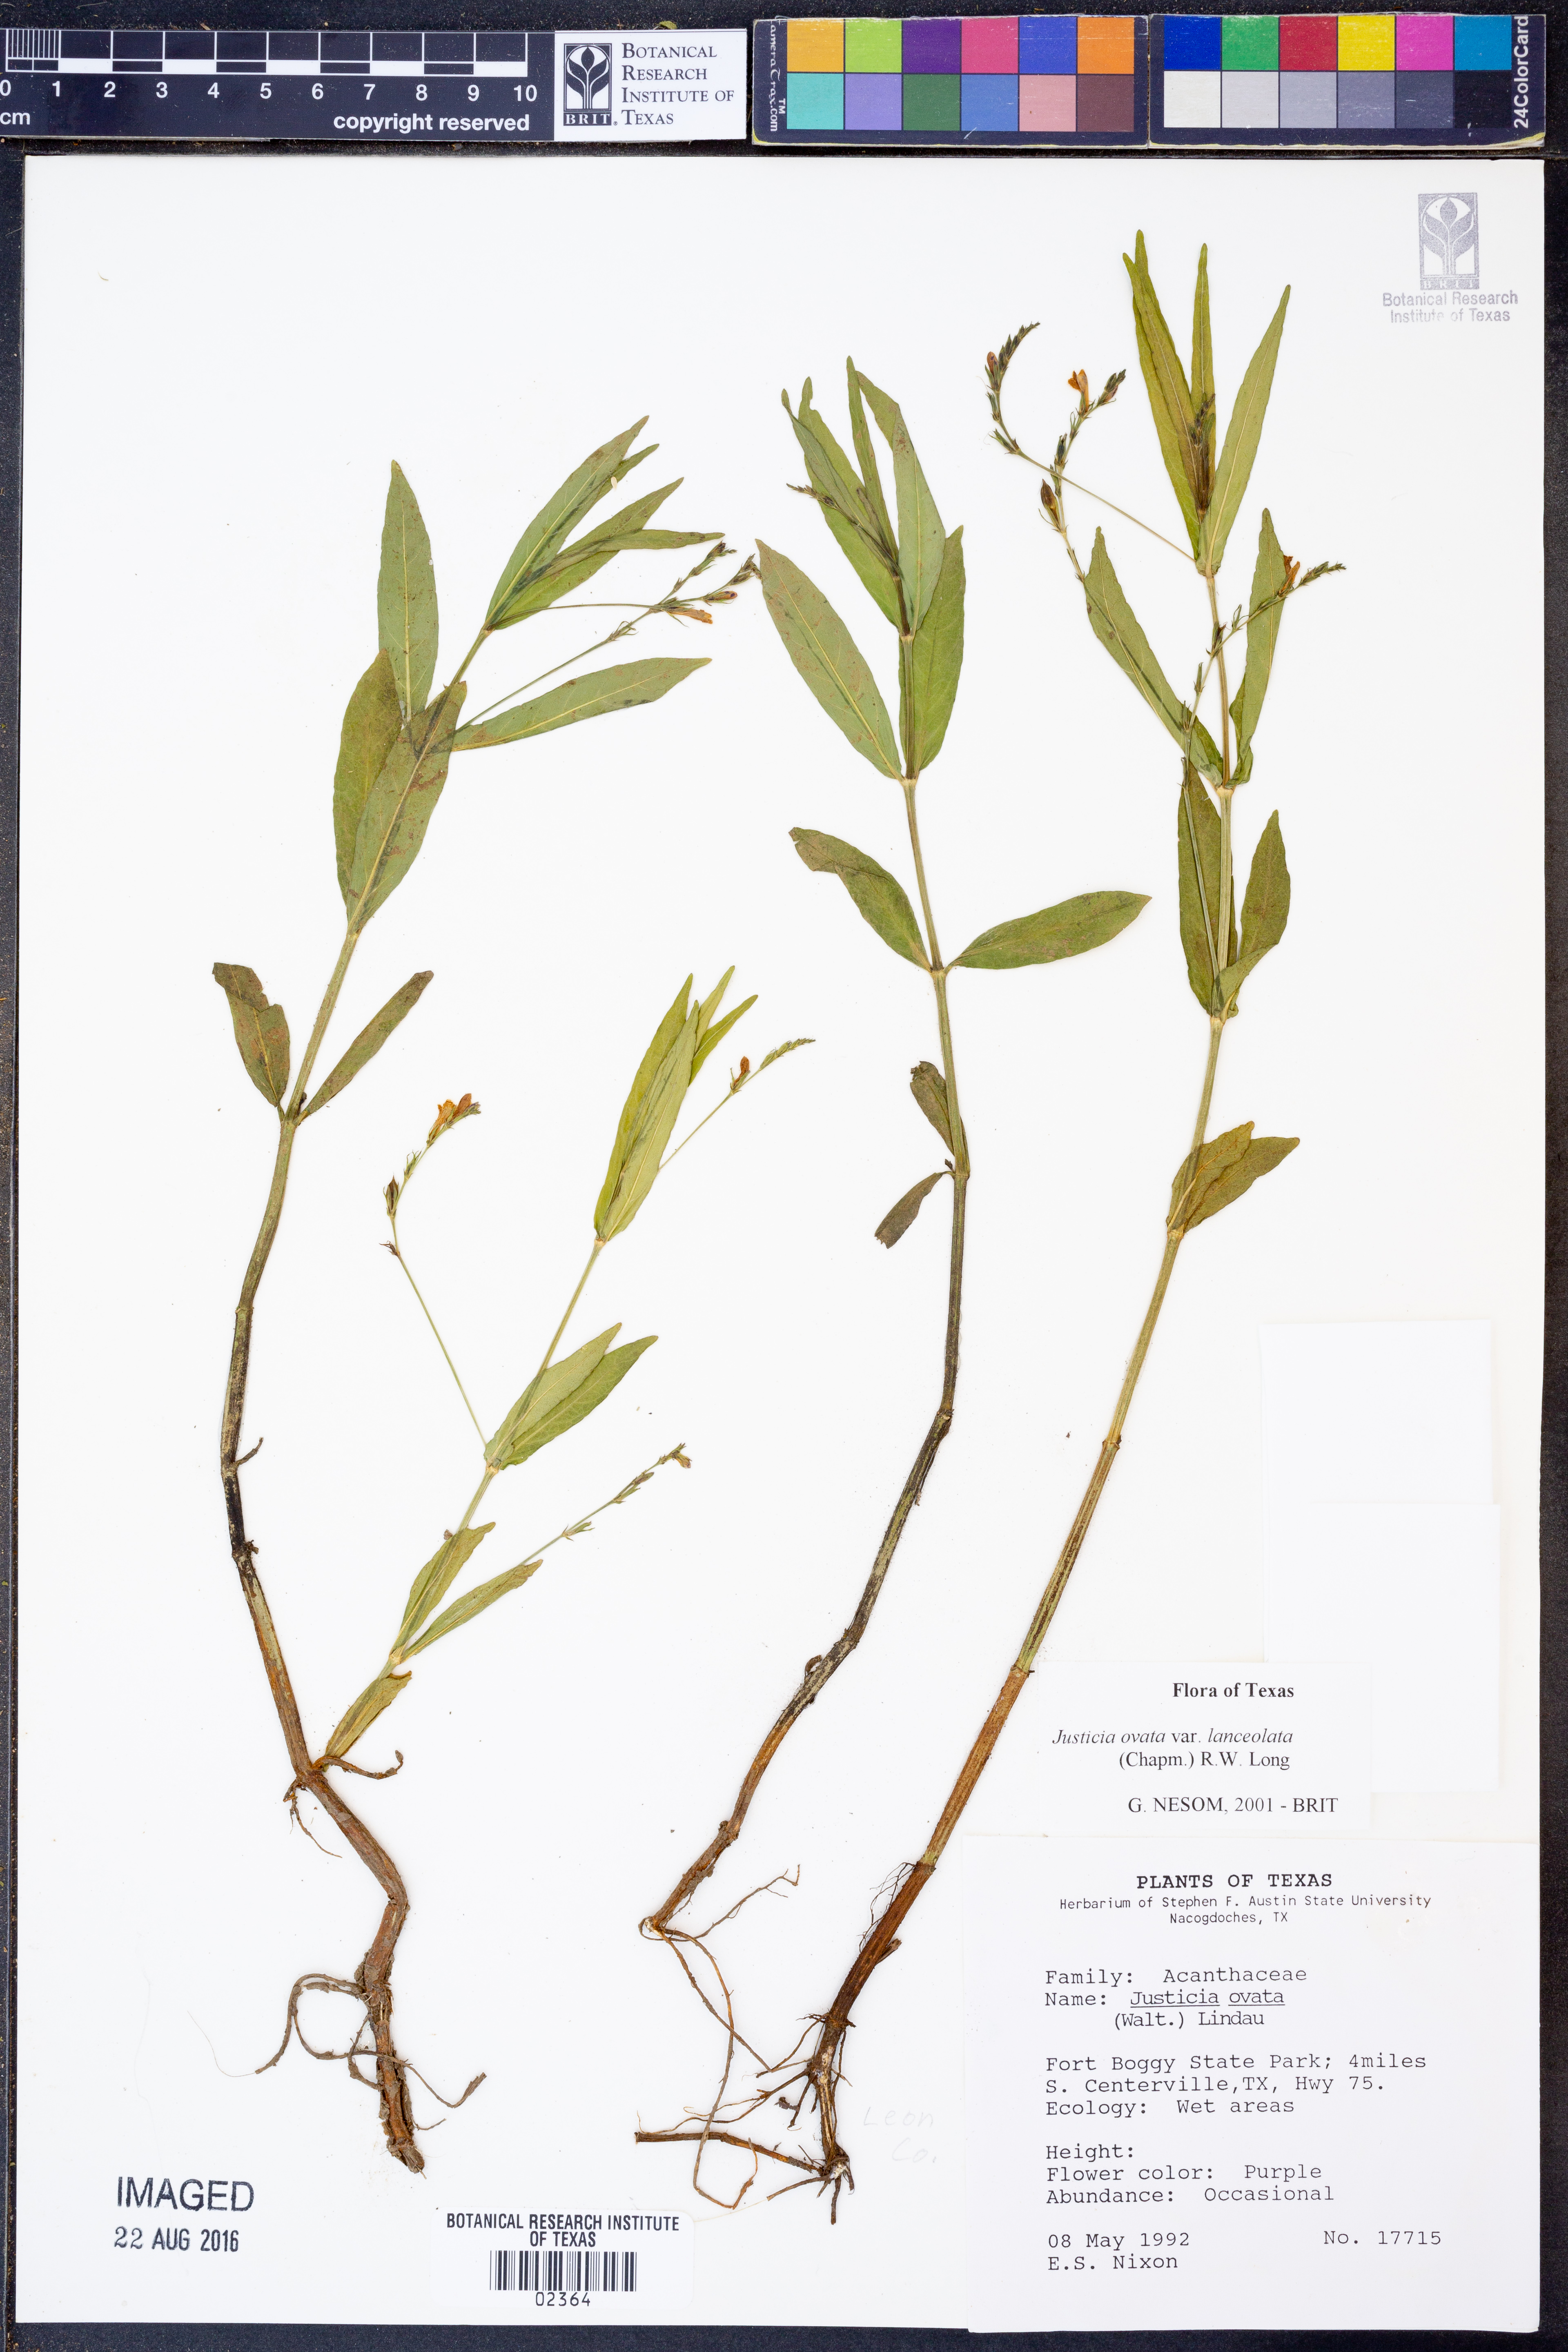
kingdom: Plantae
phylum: Tracheophyta
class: Magnoliopsida
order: Lamiales
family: Acanthaceae
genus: Justicia
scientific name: Justicia lanceolata
